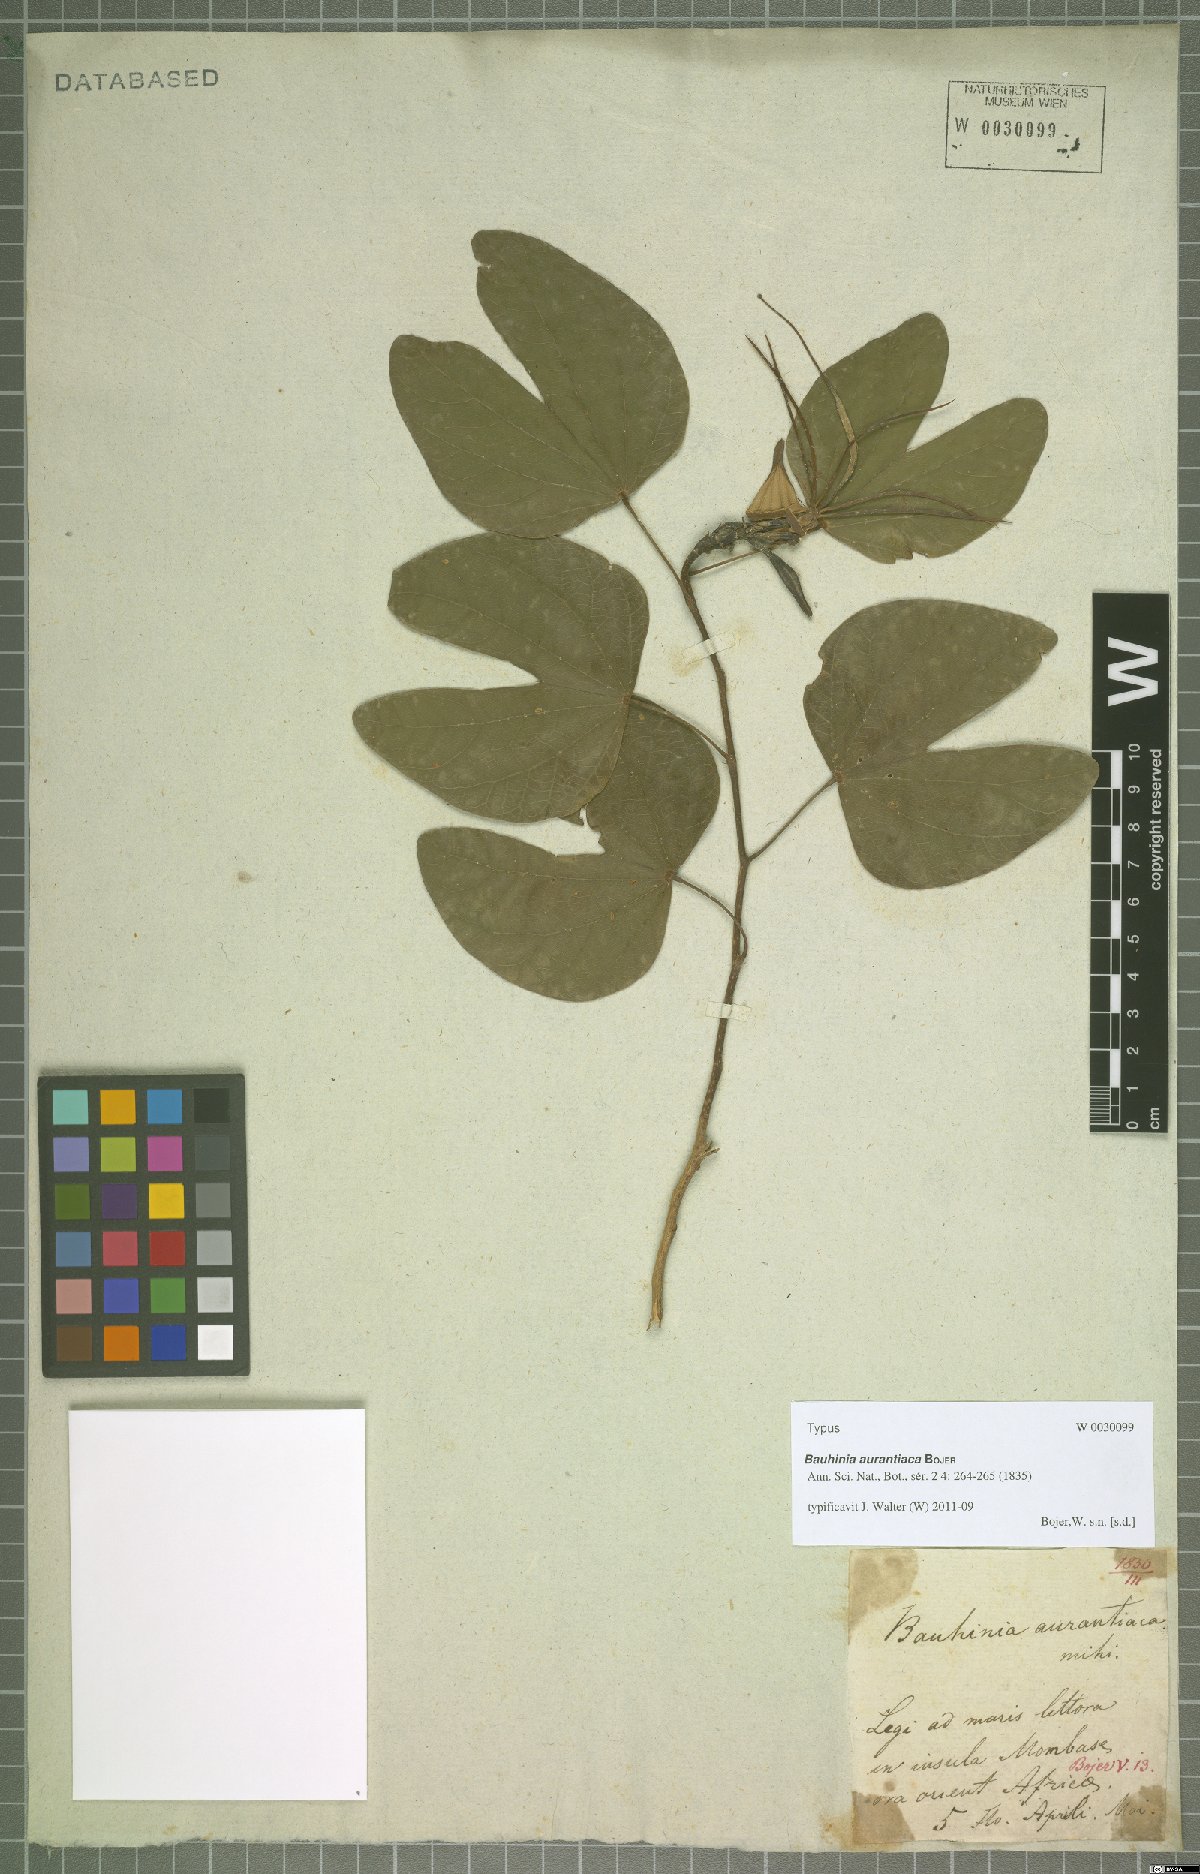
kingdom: Plantae
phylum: Tracheophyta
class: Magnoliopsida
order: Fabales
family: Fabaceae
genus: Bauhinia
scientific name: Bauhinia aurantiaca
